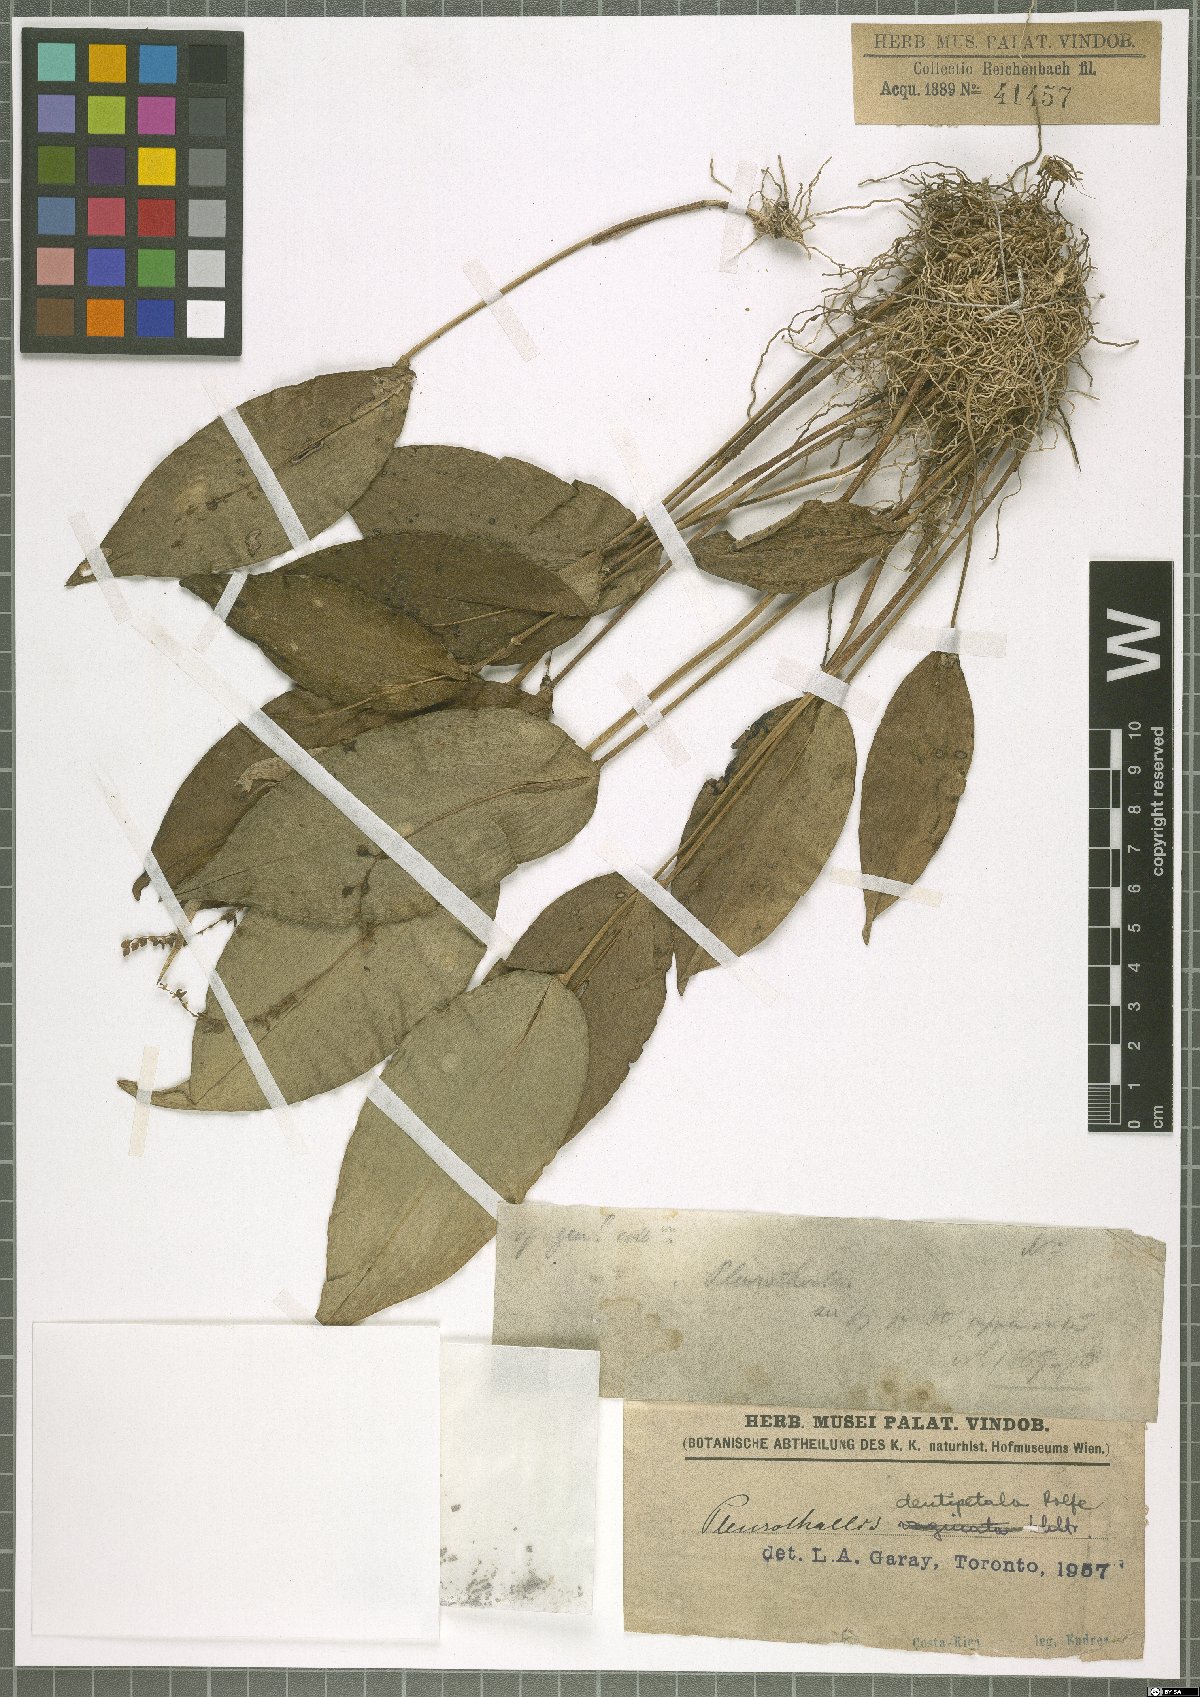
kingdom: Plantae
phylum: Tracheophyta
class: Liliopsida
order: Asparagales
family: Orchidaceae
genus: Pleurothallis
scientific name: Pleurothallis dentipetala
